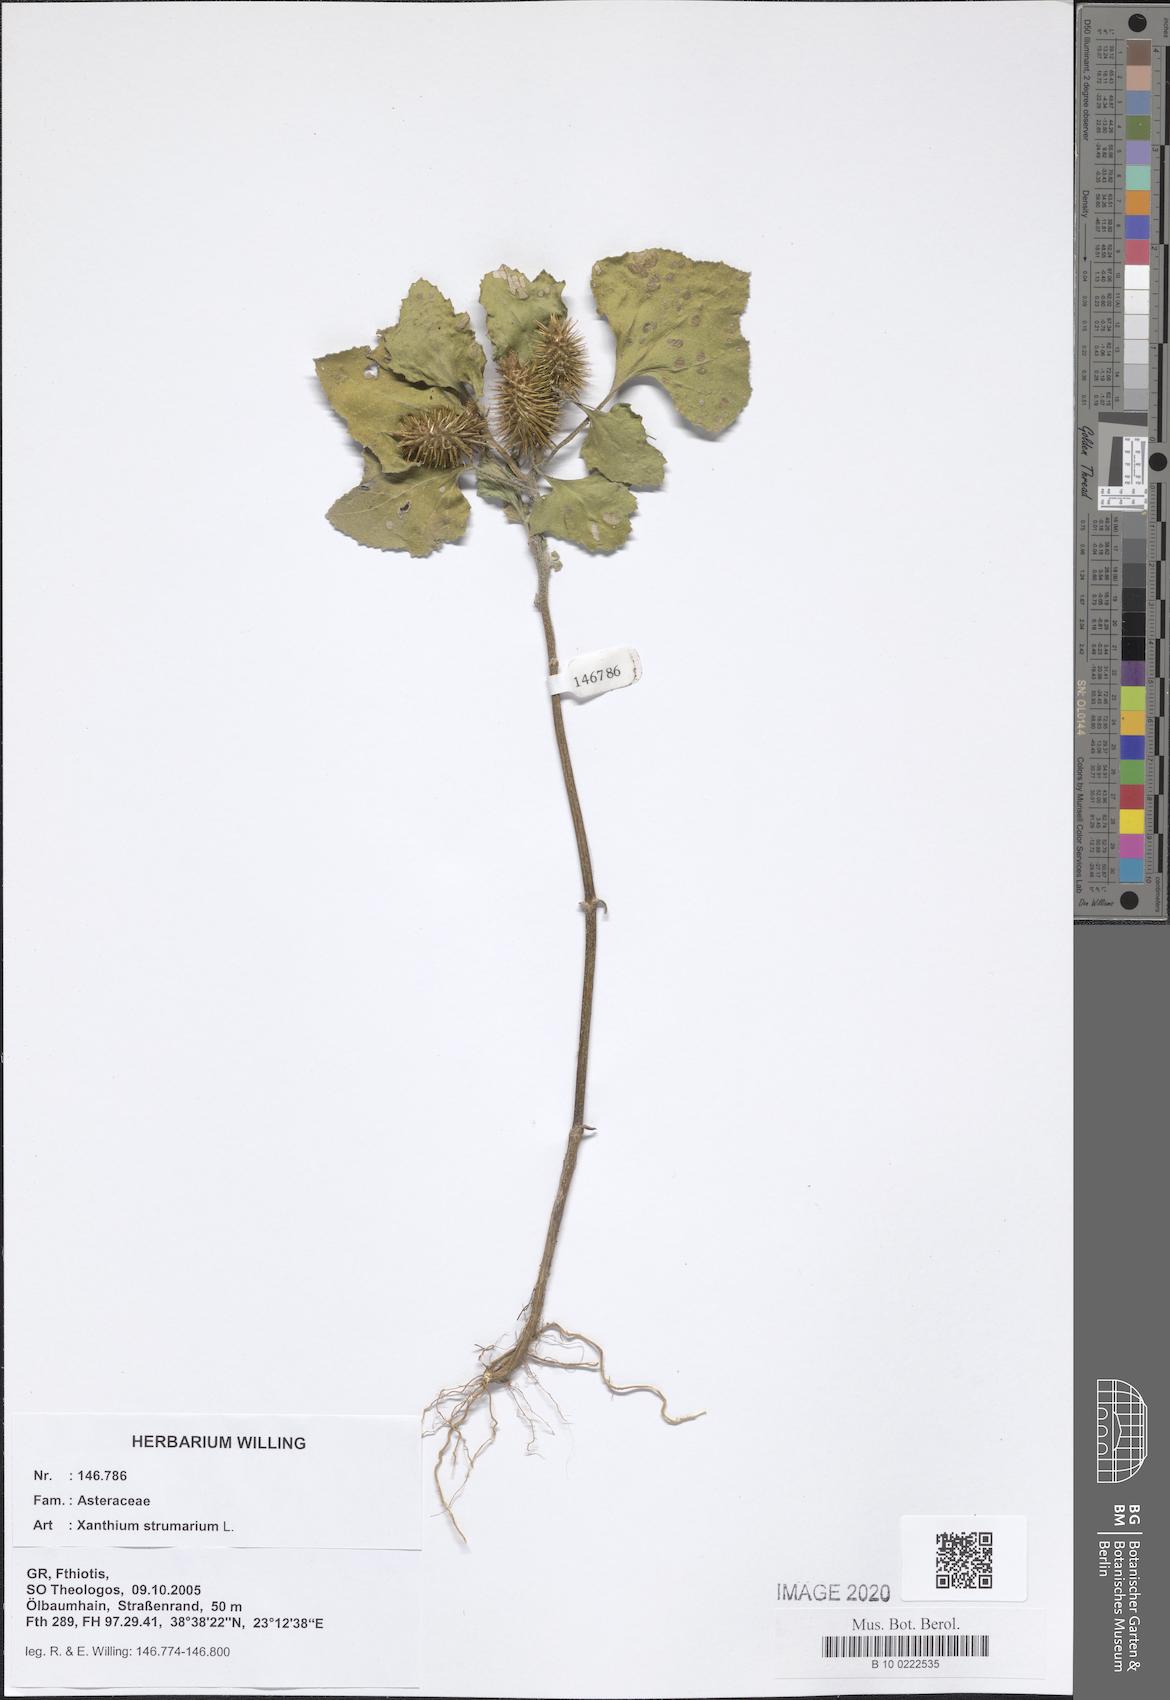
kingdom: Plantae
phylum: Tracheophyta
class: Magnoliopsida
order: Asterales
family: Asteraceae
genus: Xanthium
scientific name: Xanthium strumarium
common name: Rough cocklebur
